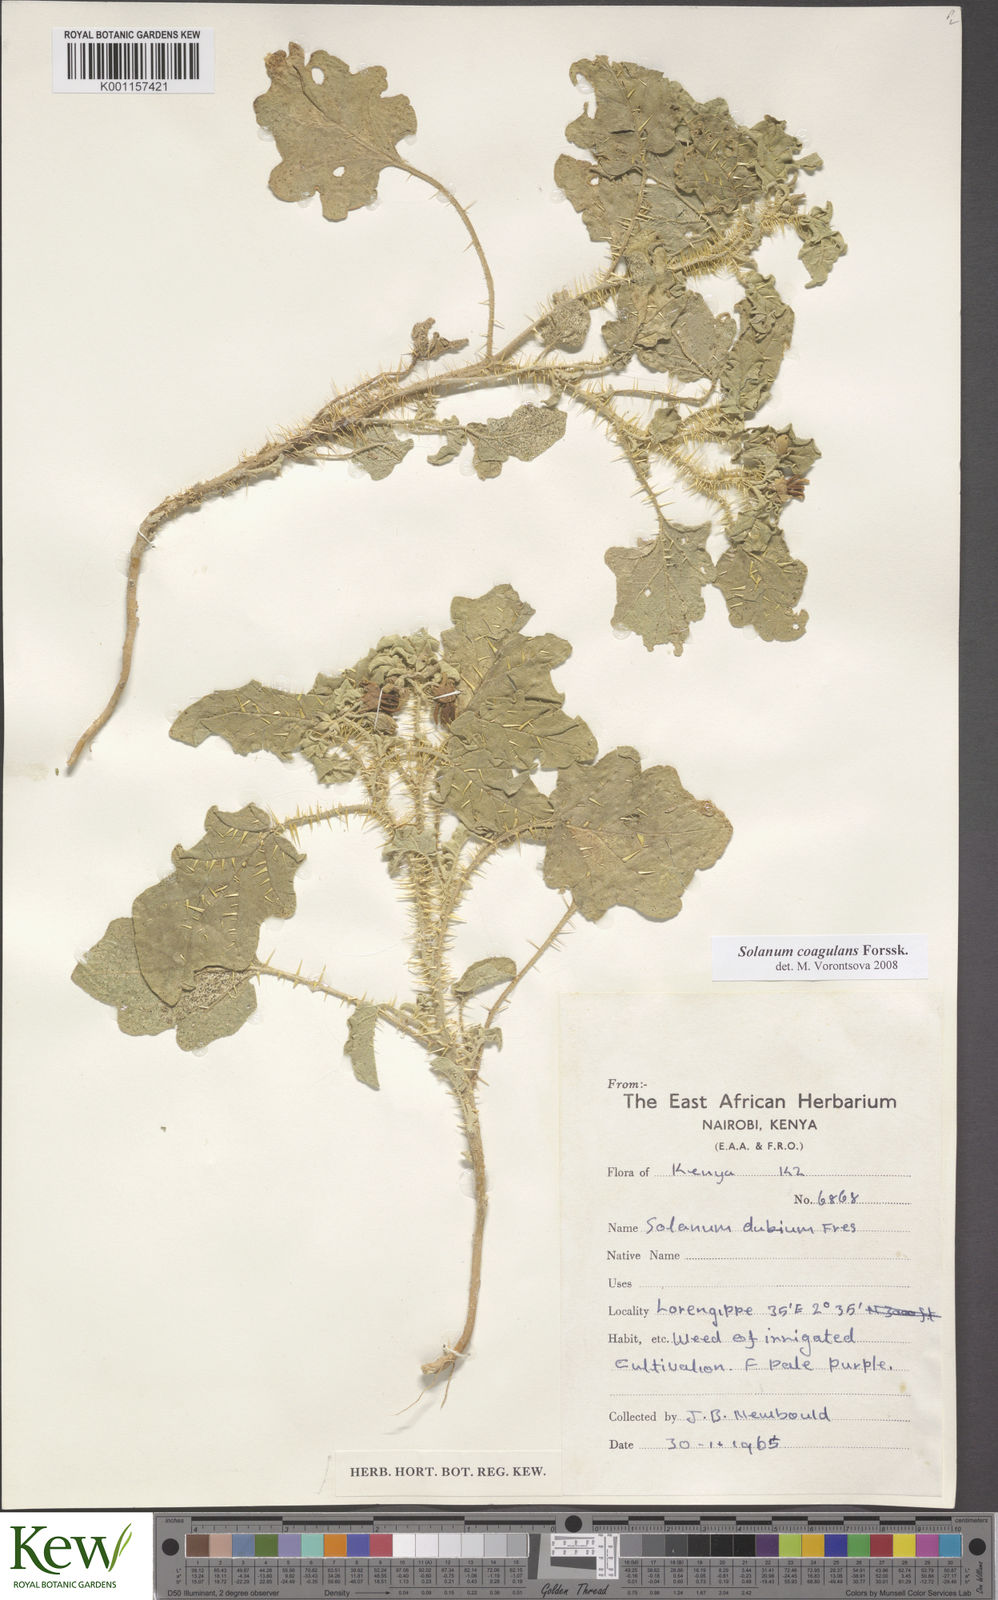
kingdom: Plantae
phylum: Tracheophyta
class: Magnoliopsida
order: Solanales
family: Solanaceae
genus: Solanum
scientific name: Solanum coagulans
